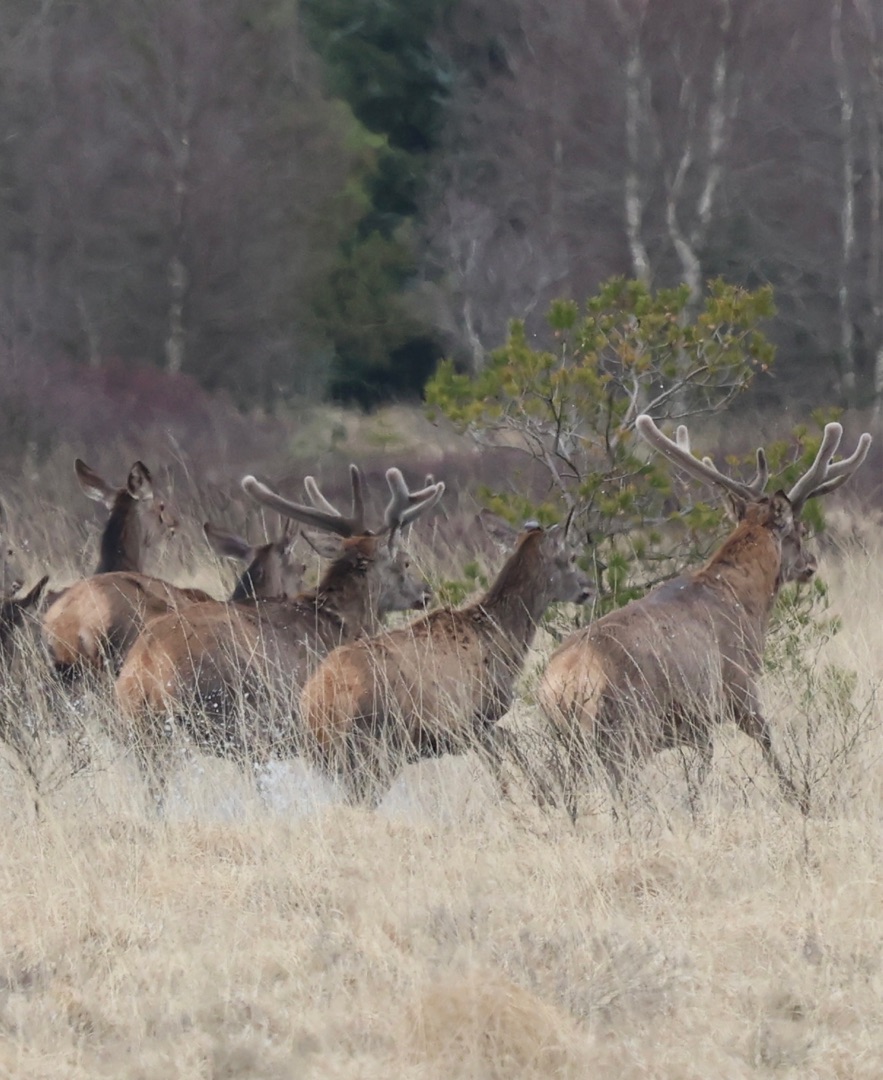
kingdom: Animalia
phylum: Chordata
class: Mammalia
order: Artiodactyla
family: Cervidae
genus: Cervus
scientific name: Cervus elaphus
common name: Krondyr
